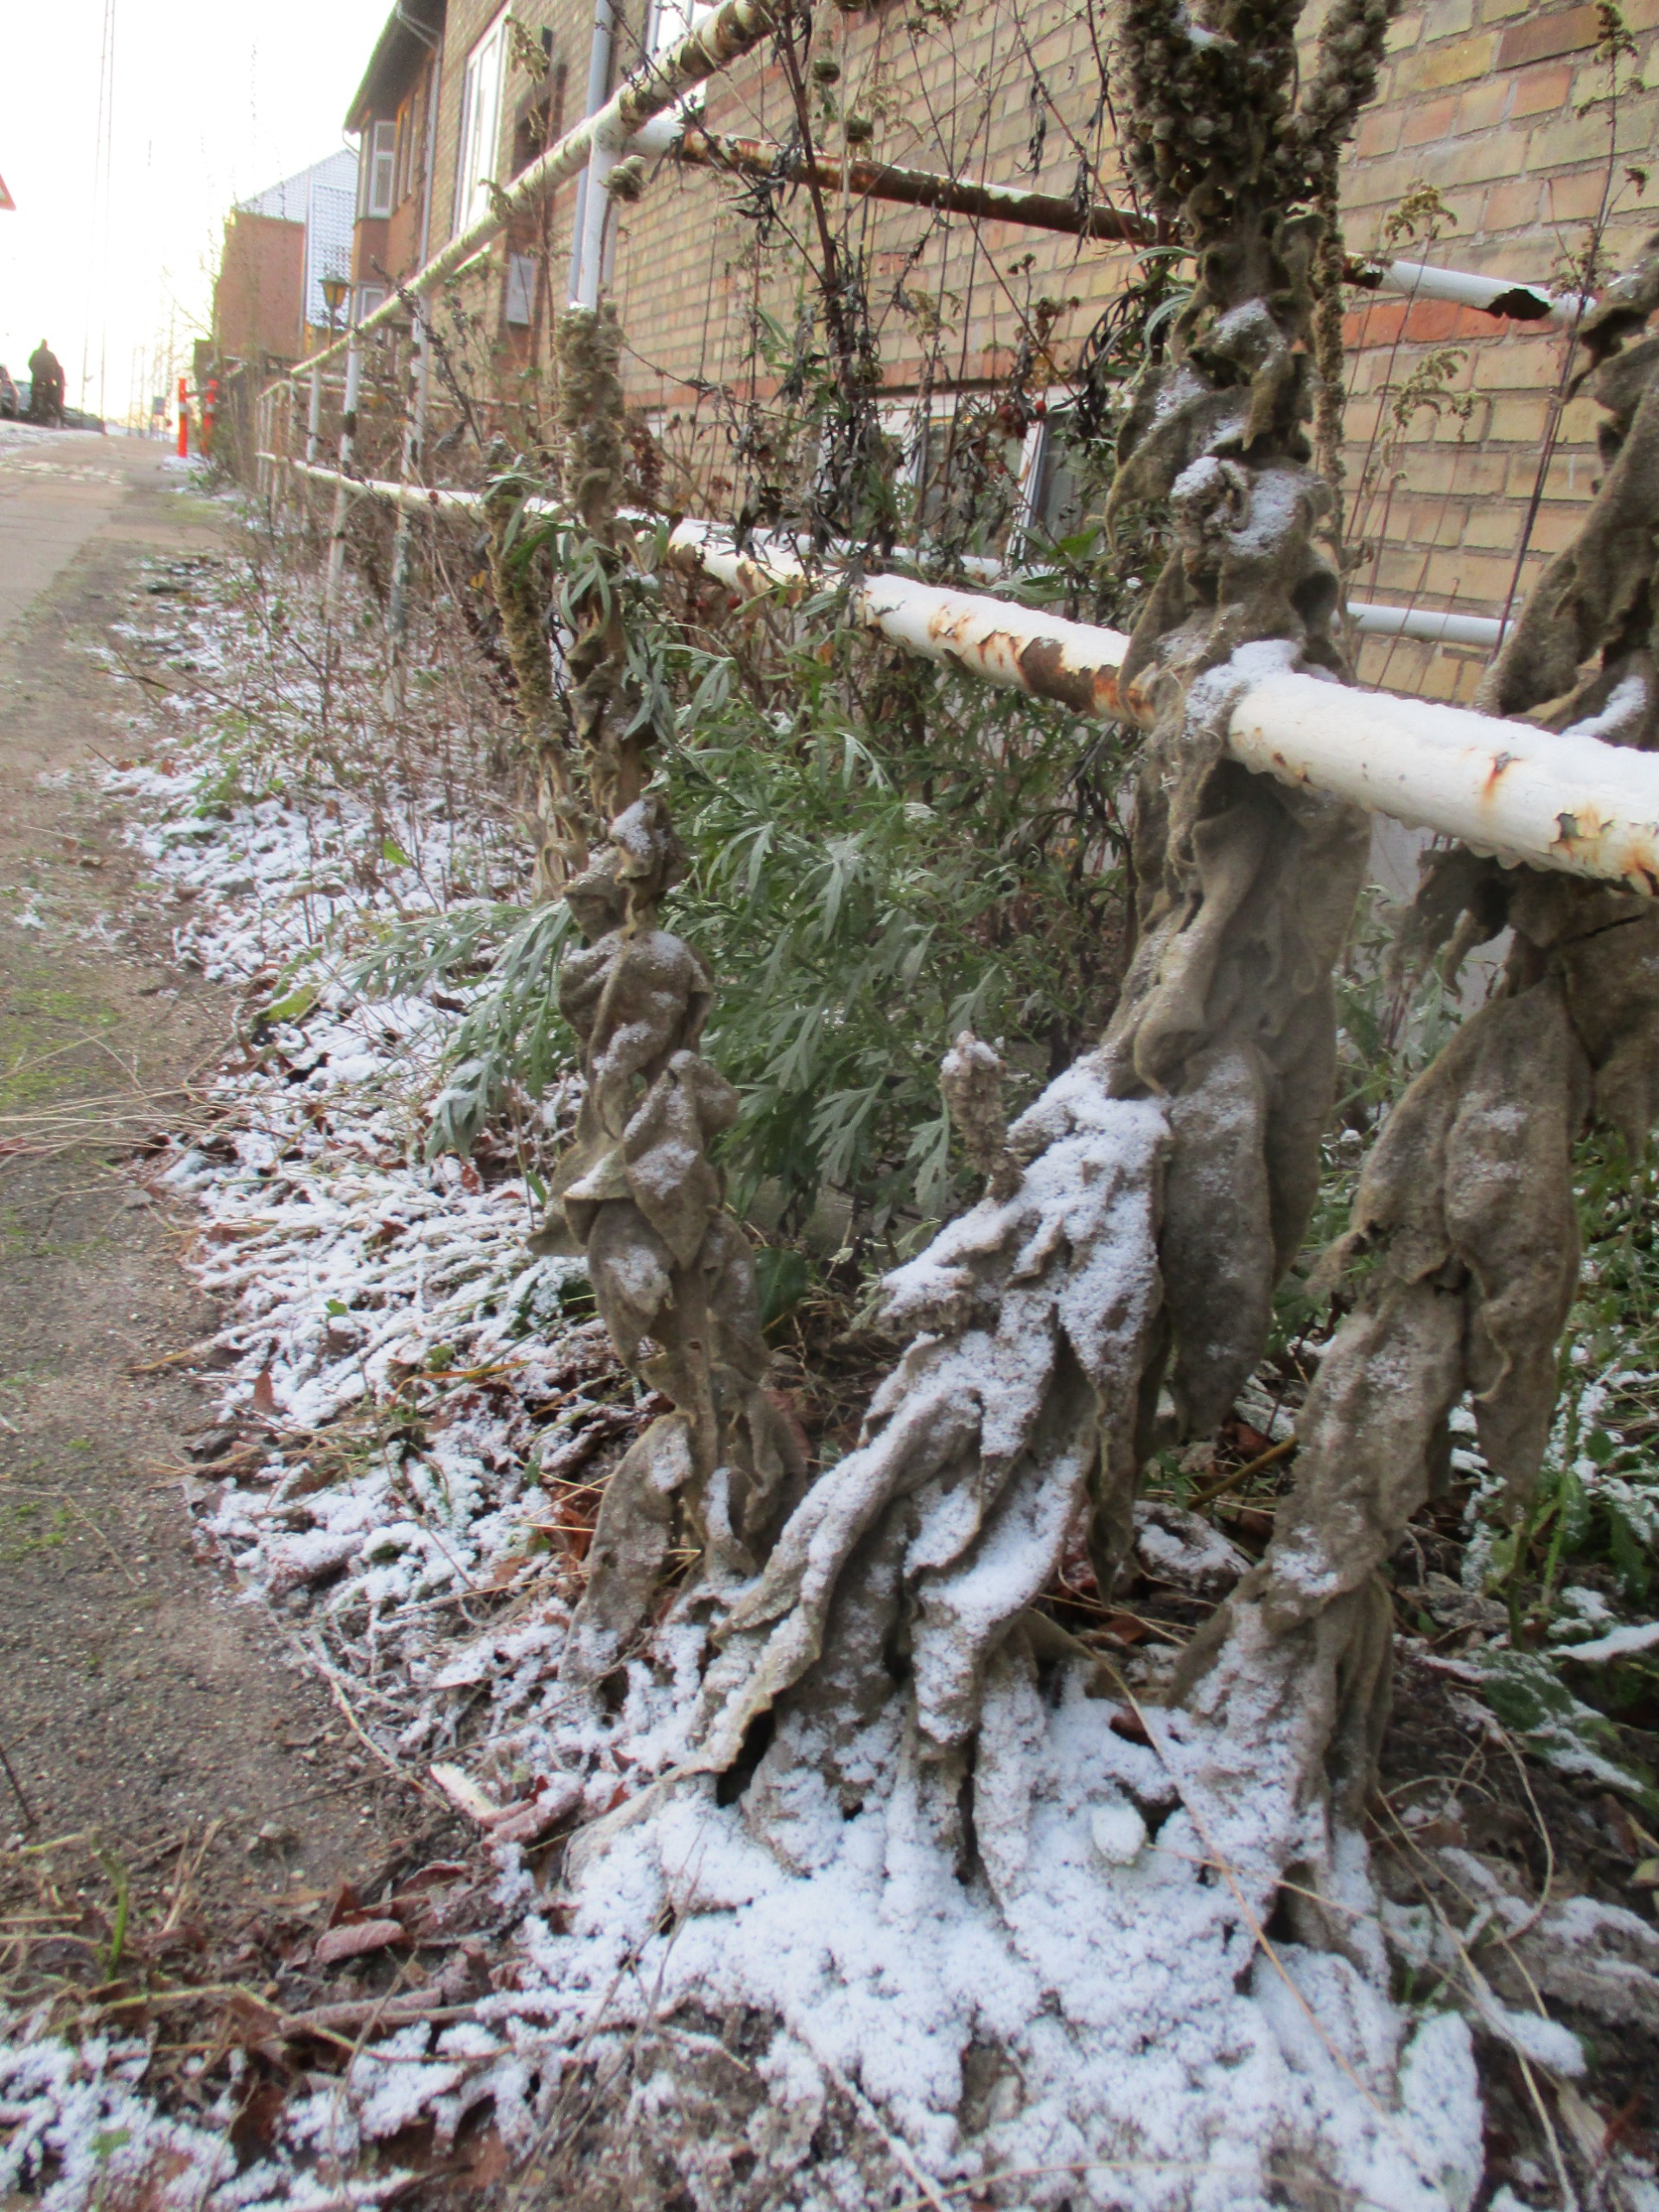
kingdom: Plantae
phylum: Tracheophyta
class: Magnoliopsida
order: Lamiales
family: Scrophulariaceae
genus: Verbascum
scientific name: Verbascum phlomoides
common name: Hjertebladet kongelys
